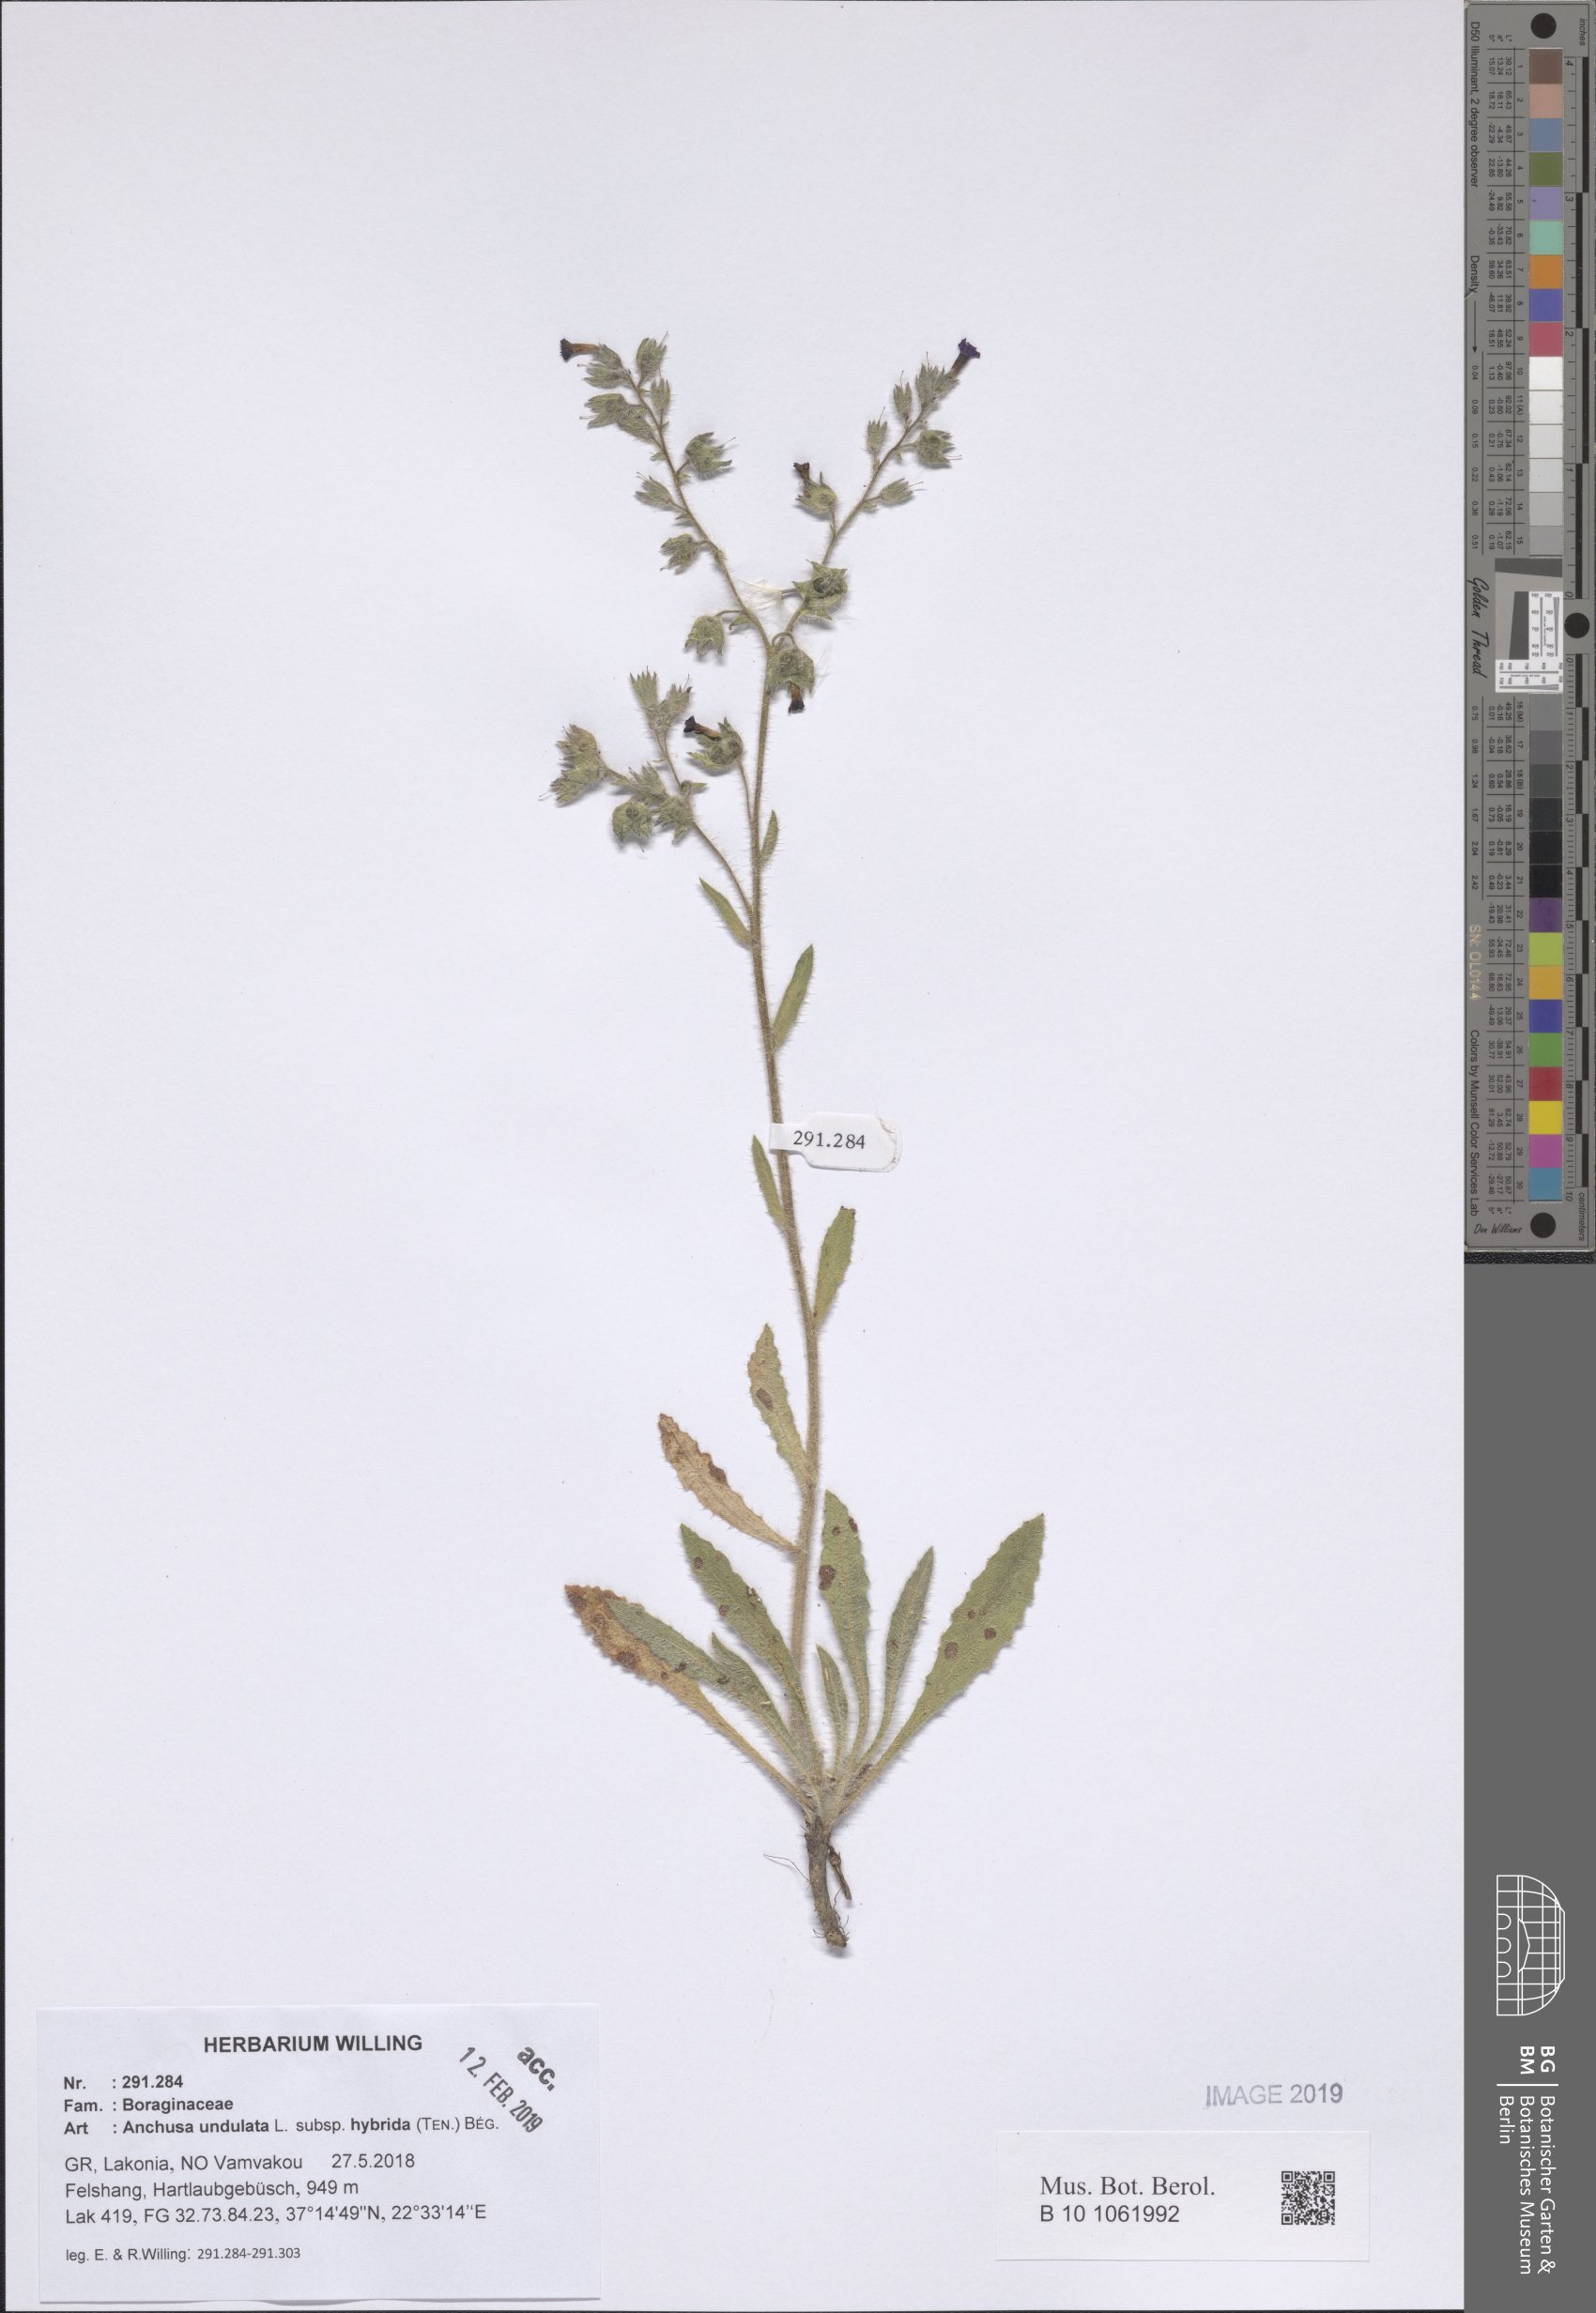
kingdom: Plantae
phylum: Tracheophyta
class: Magnoliopsida
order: Boraginales
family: Boraginaceae
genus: Anchusa
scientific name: Anchusa undulata
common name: Undulate alkanet
